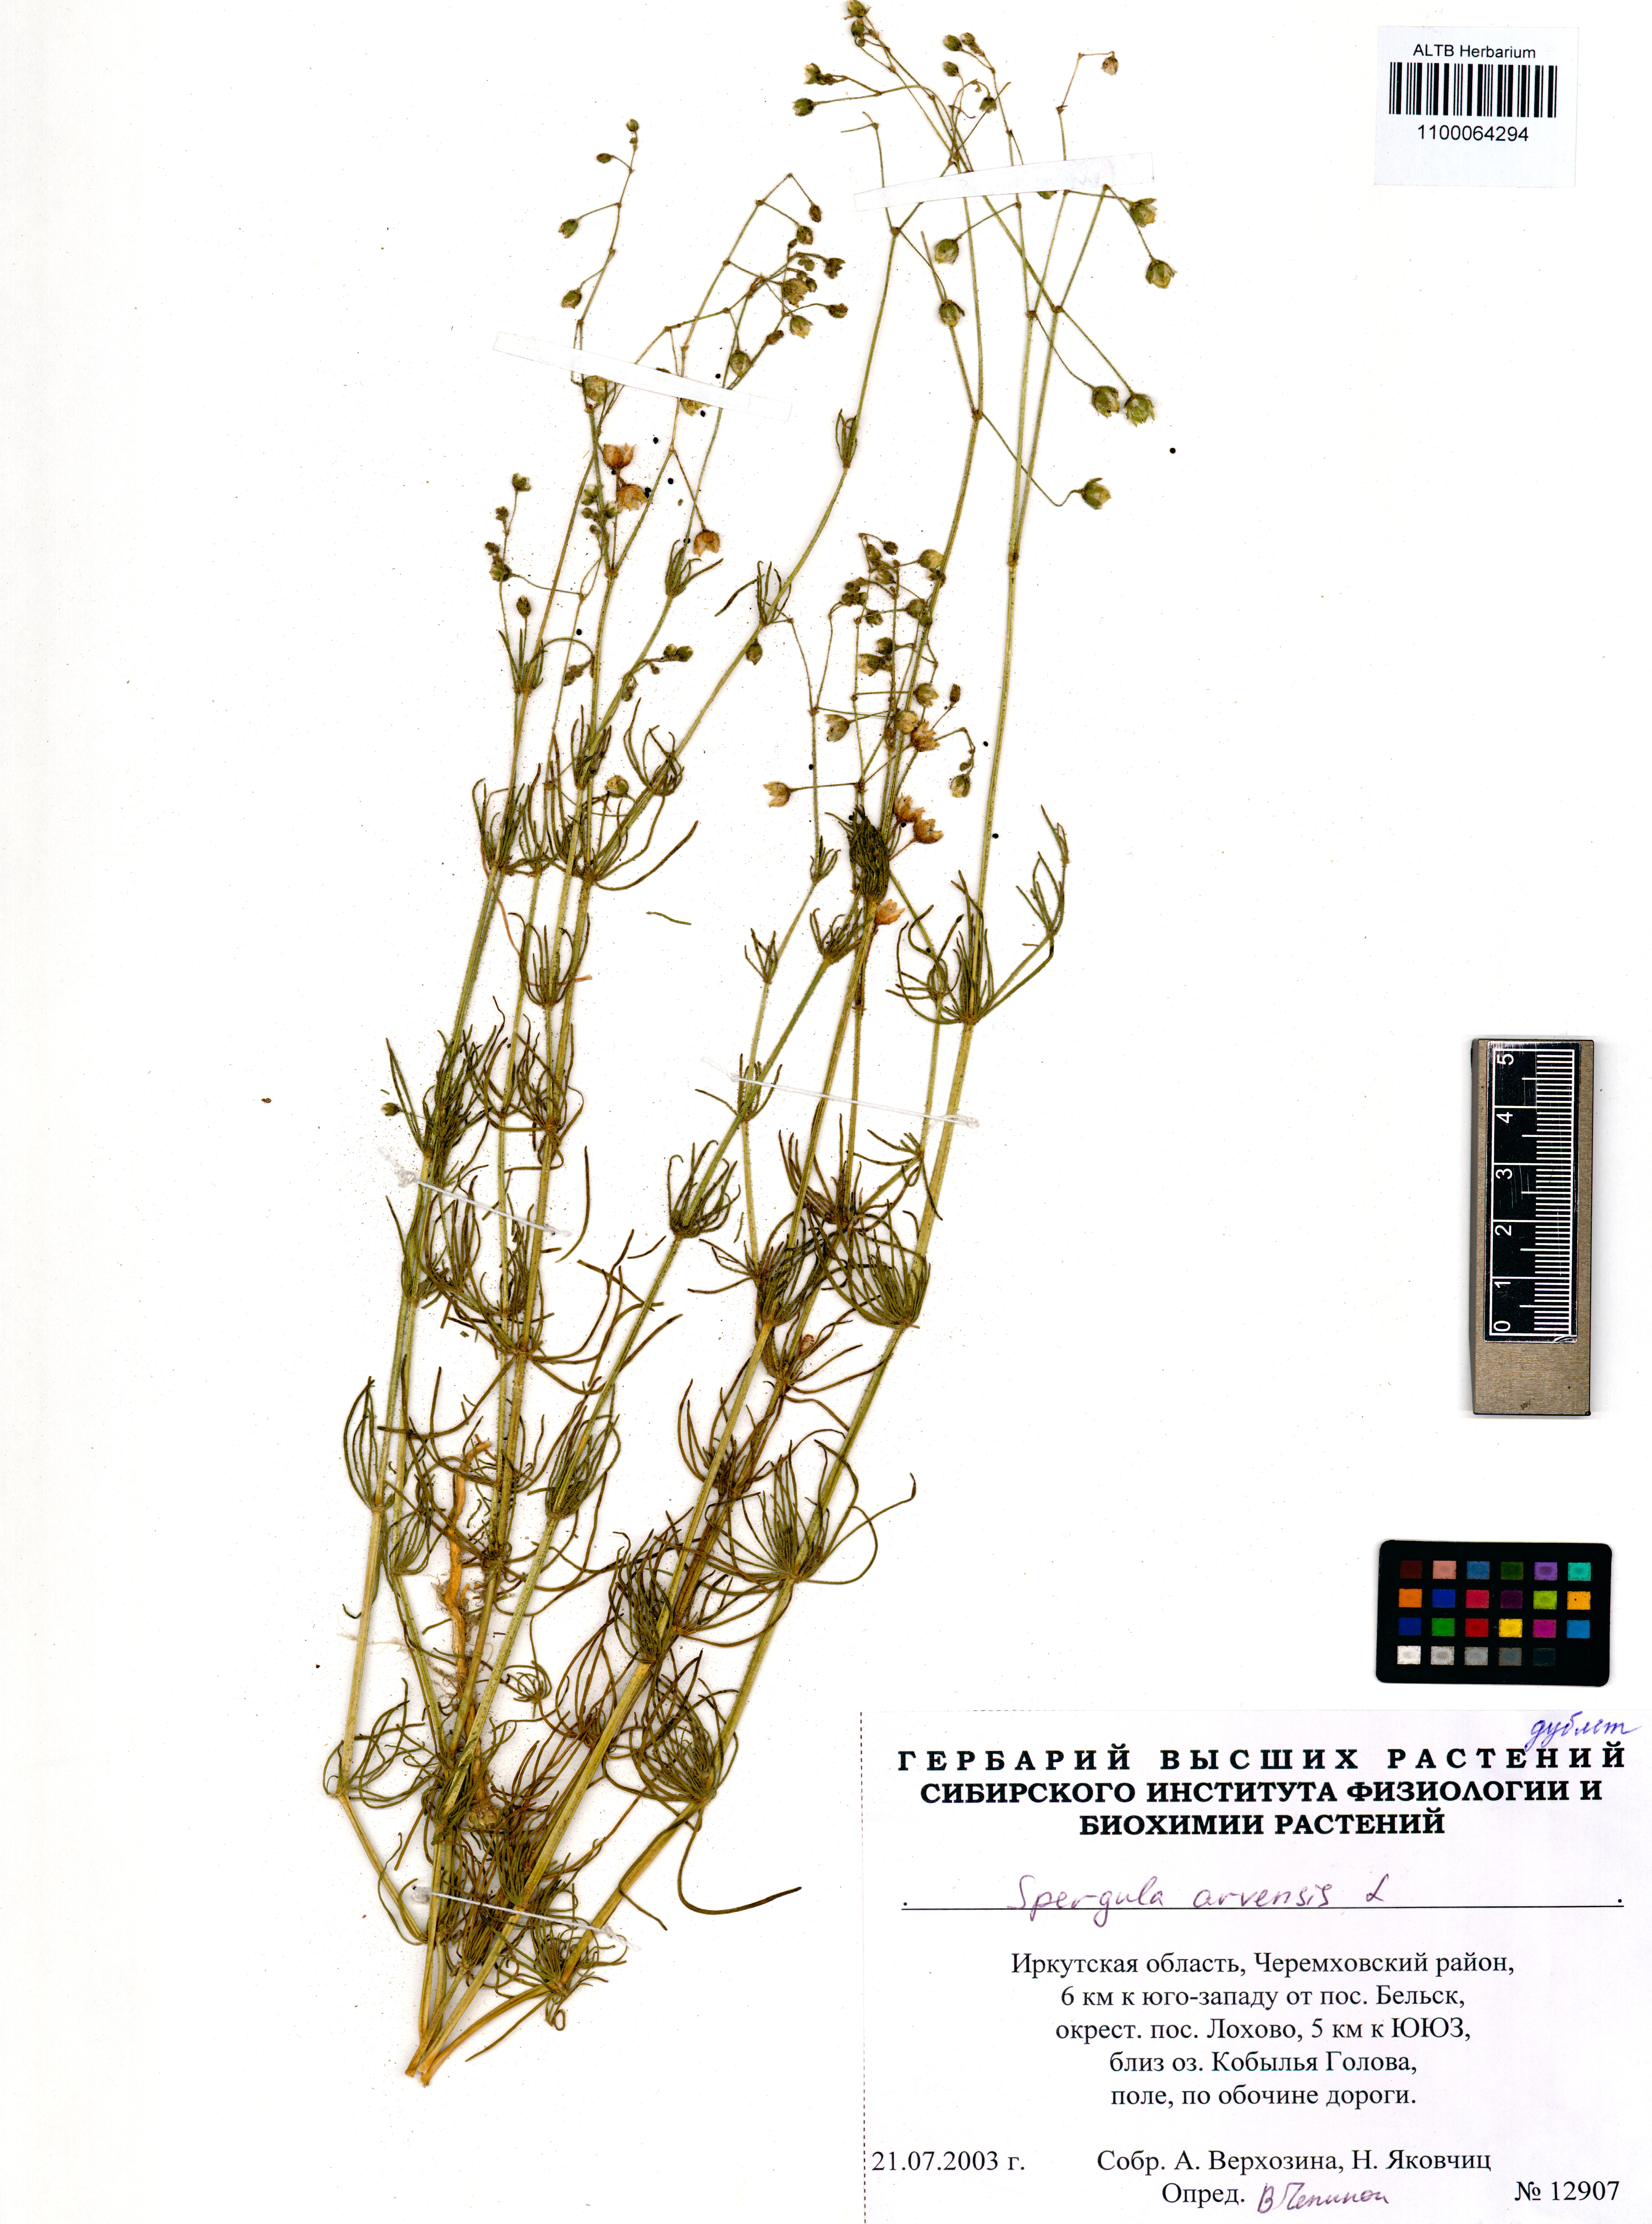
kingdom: Plantae
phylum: Tracheophyta
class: Magnoliopsida
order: Caryophyllales
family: Caryophyllaceae
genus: Spergula
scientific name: Spergula arvensis
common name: Corn spurrey
